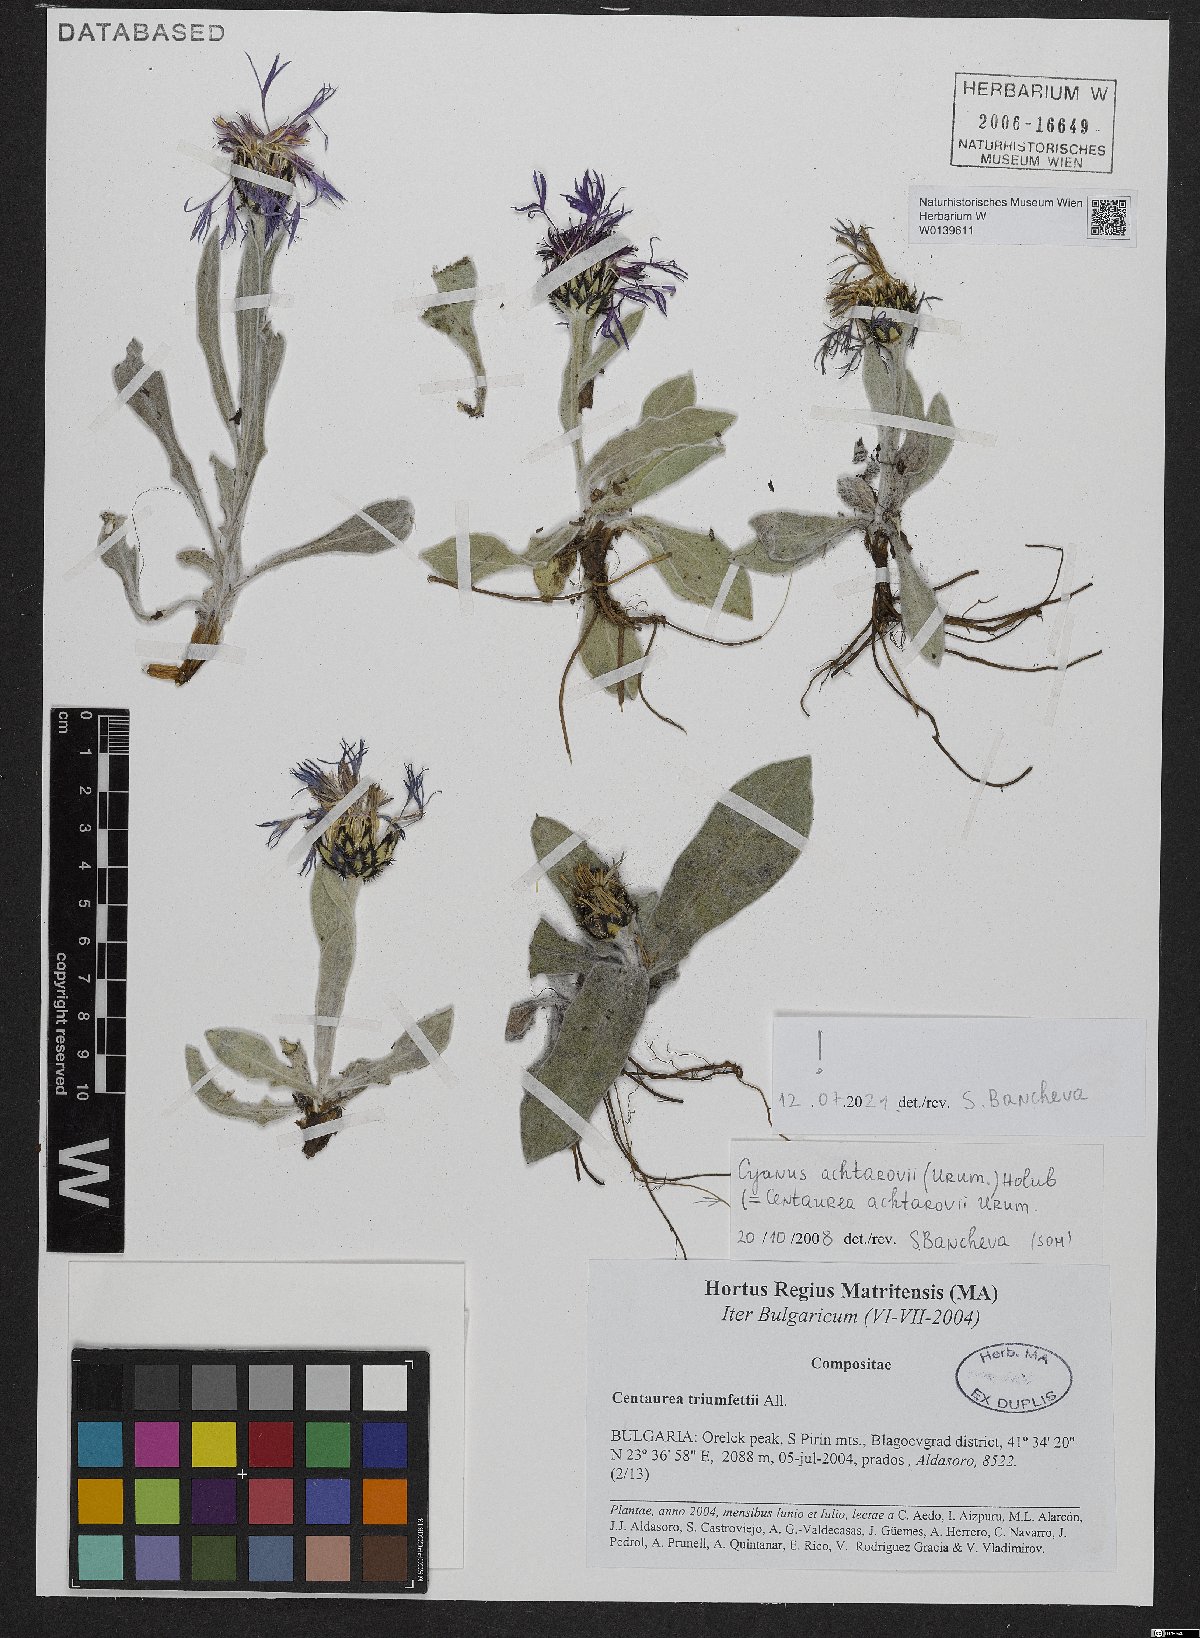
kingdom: Plantae
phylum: Tracheophyta
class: Magnoliopsida
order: Asterales
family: Asteraceae
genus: Centaurea
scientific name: Centaurea achtarovii
